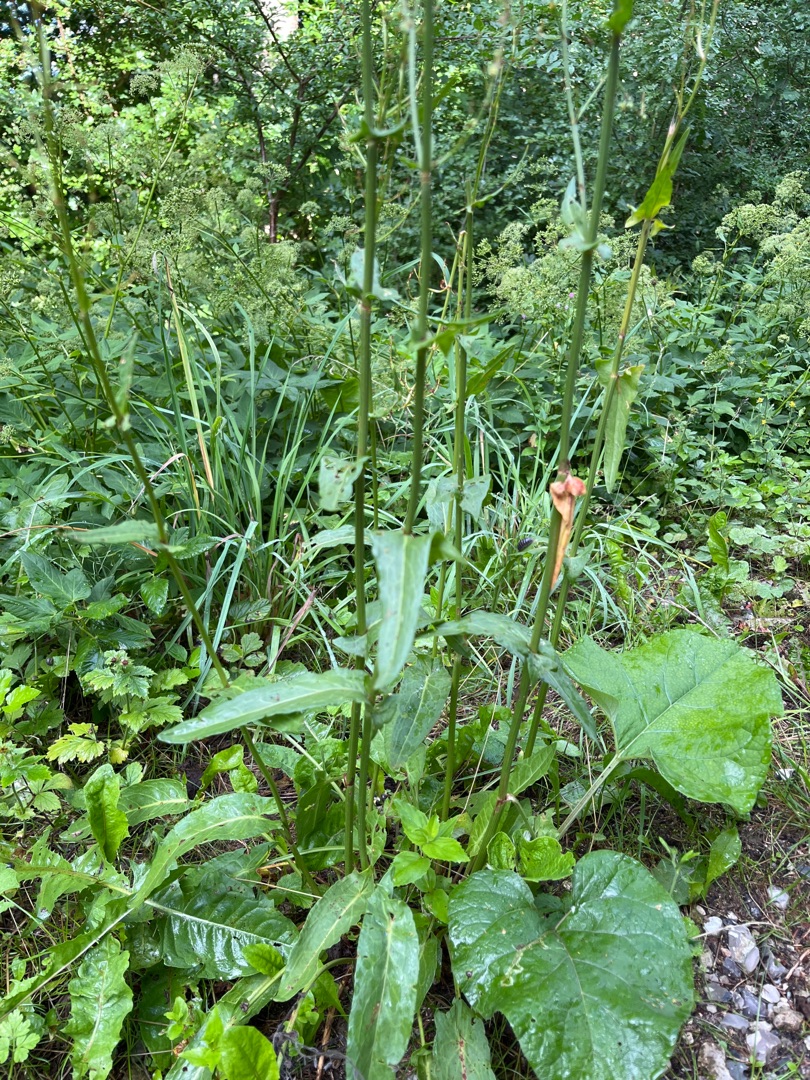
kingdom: Plantae
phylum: Tracheophyta
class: Magnoliopsida
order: Caryophyllales
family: Polygonaceae
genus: Rumex
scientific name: Rumex thyrsiflorus
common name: Dusk-syre
